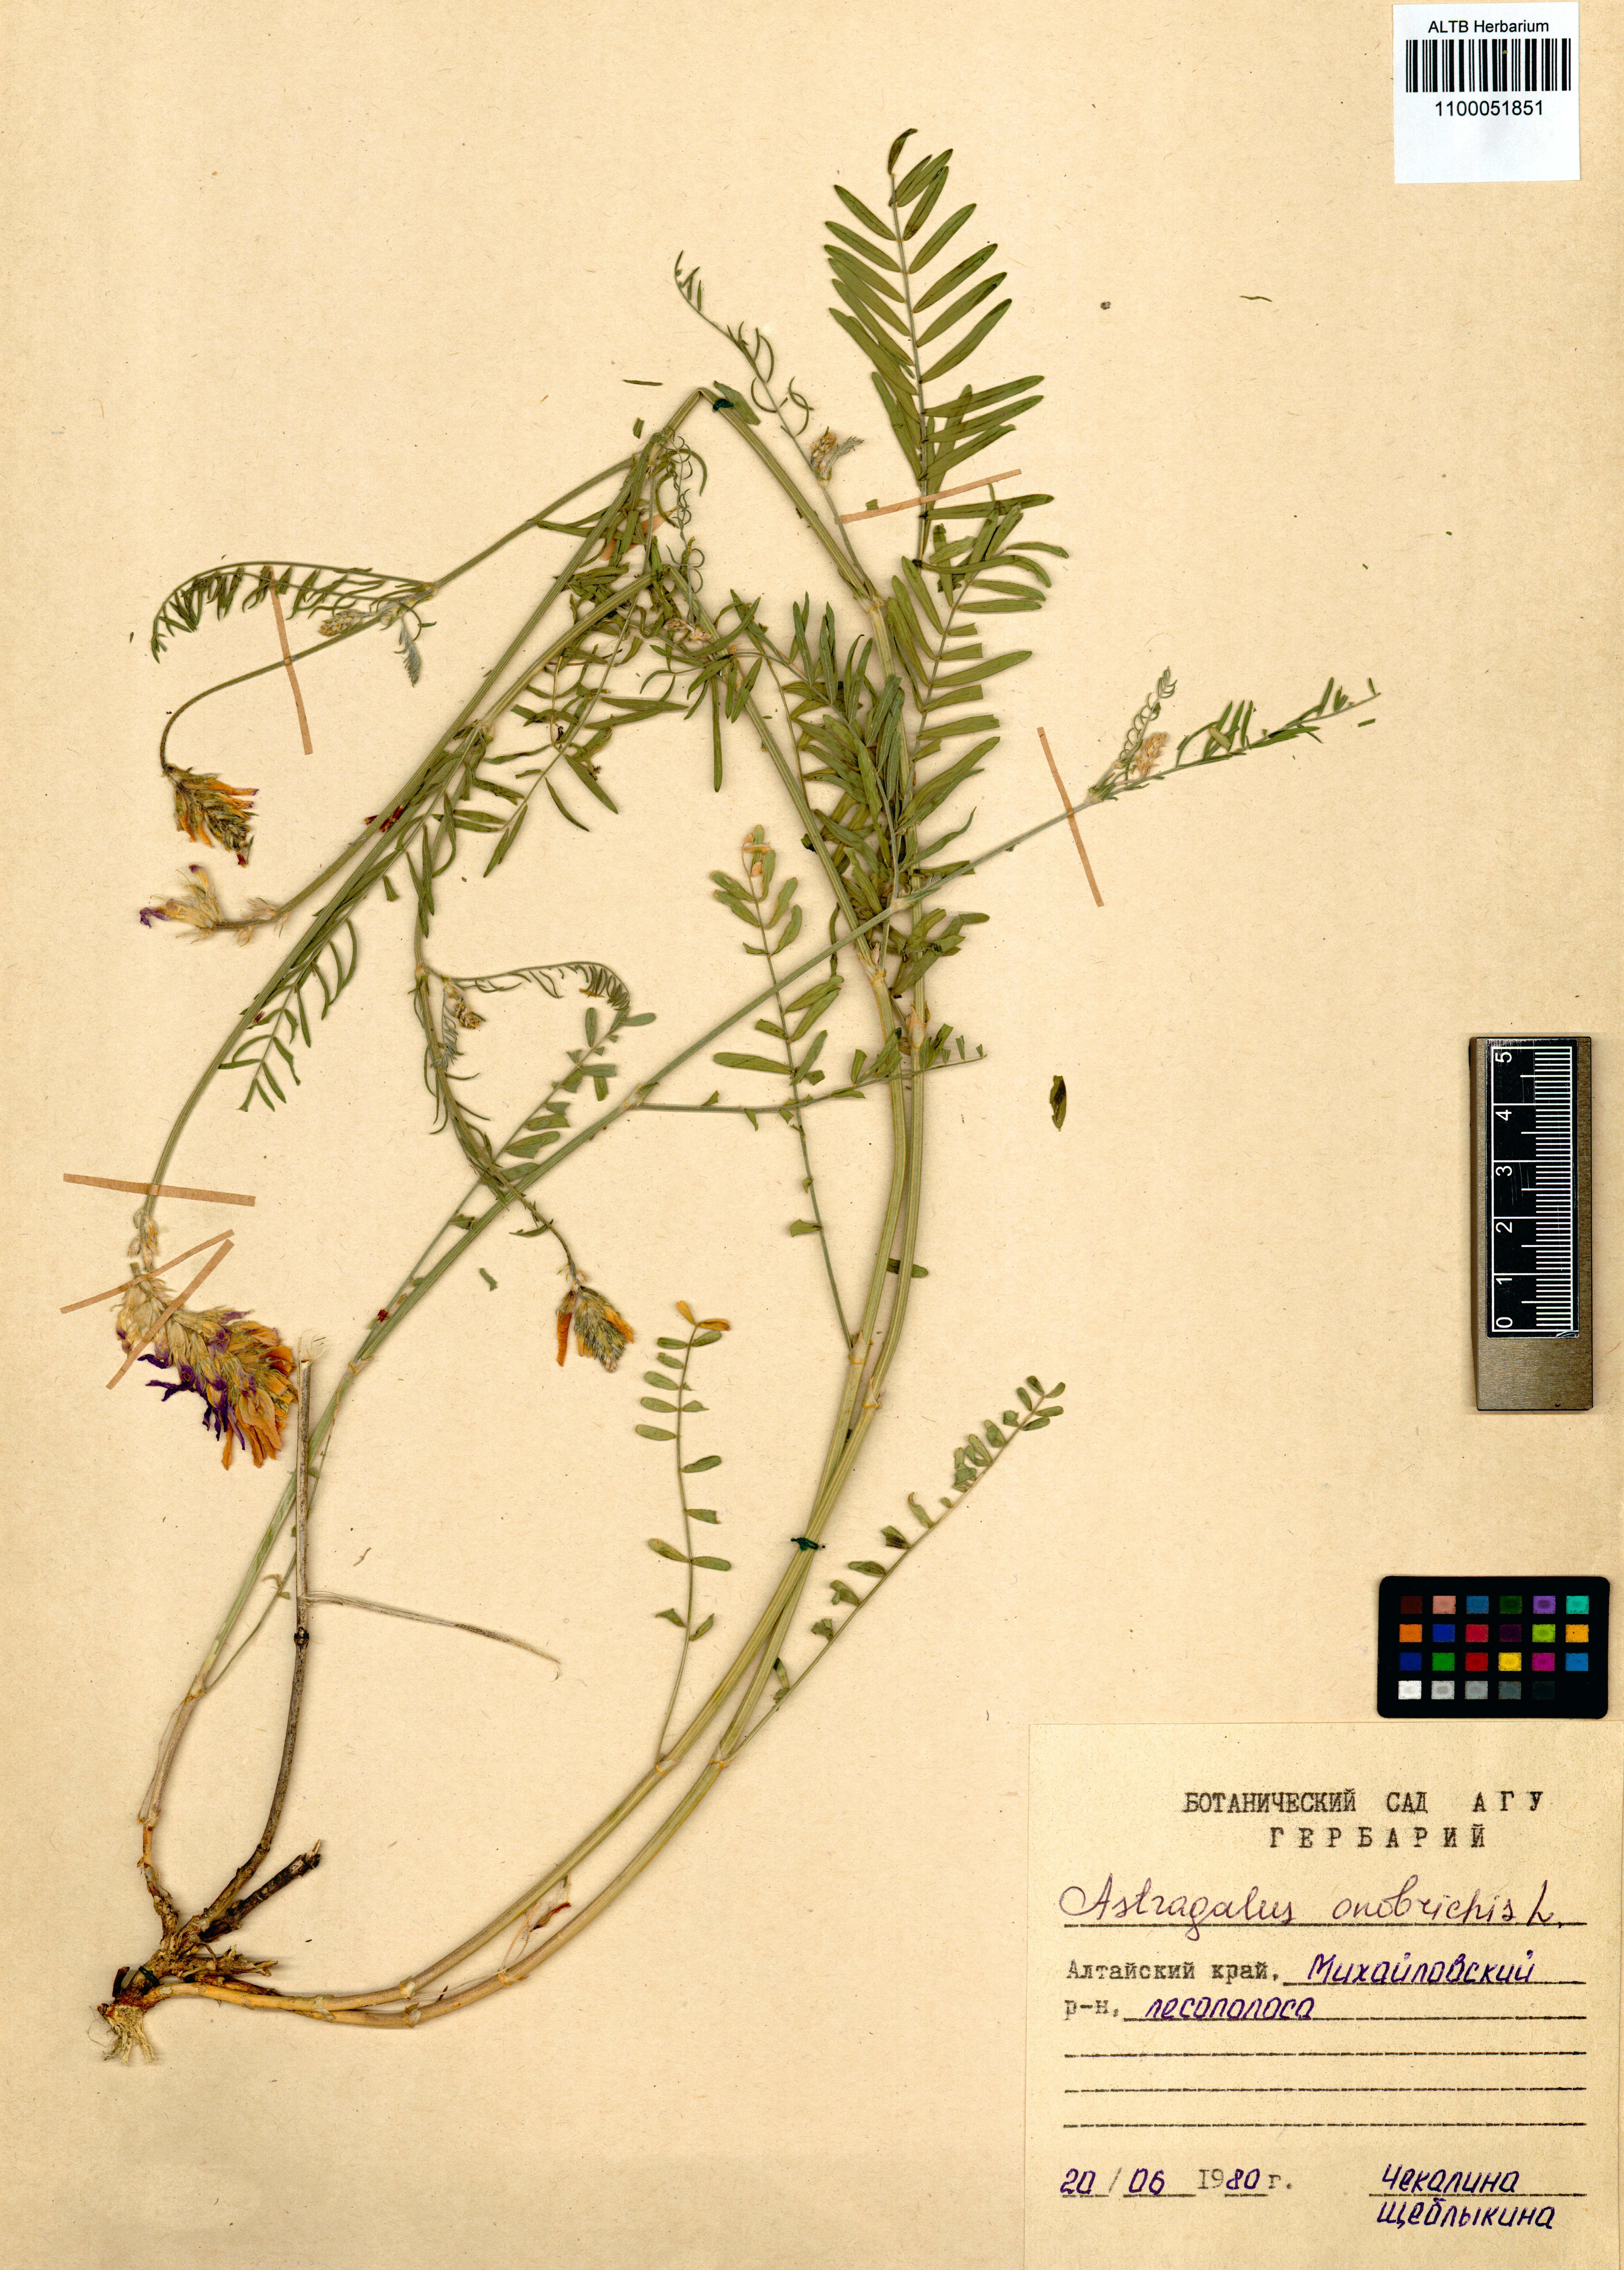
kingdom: Plantae
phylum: Tracheophyta
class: Magnoliopsida
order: Fabales
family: Fabaceae
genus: Astragalus
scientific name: Astragalus onobrychis
